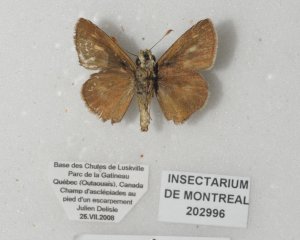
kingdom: Animalia
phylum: Arthropoda
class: Insecta
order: Lepidoptera
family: Hesperiidae
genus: Polites
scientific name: Polites egeremet
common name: Northern Broken-Dash
